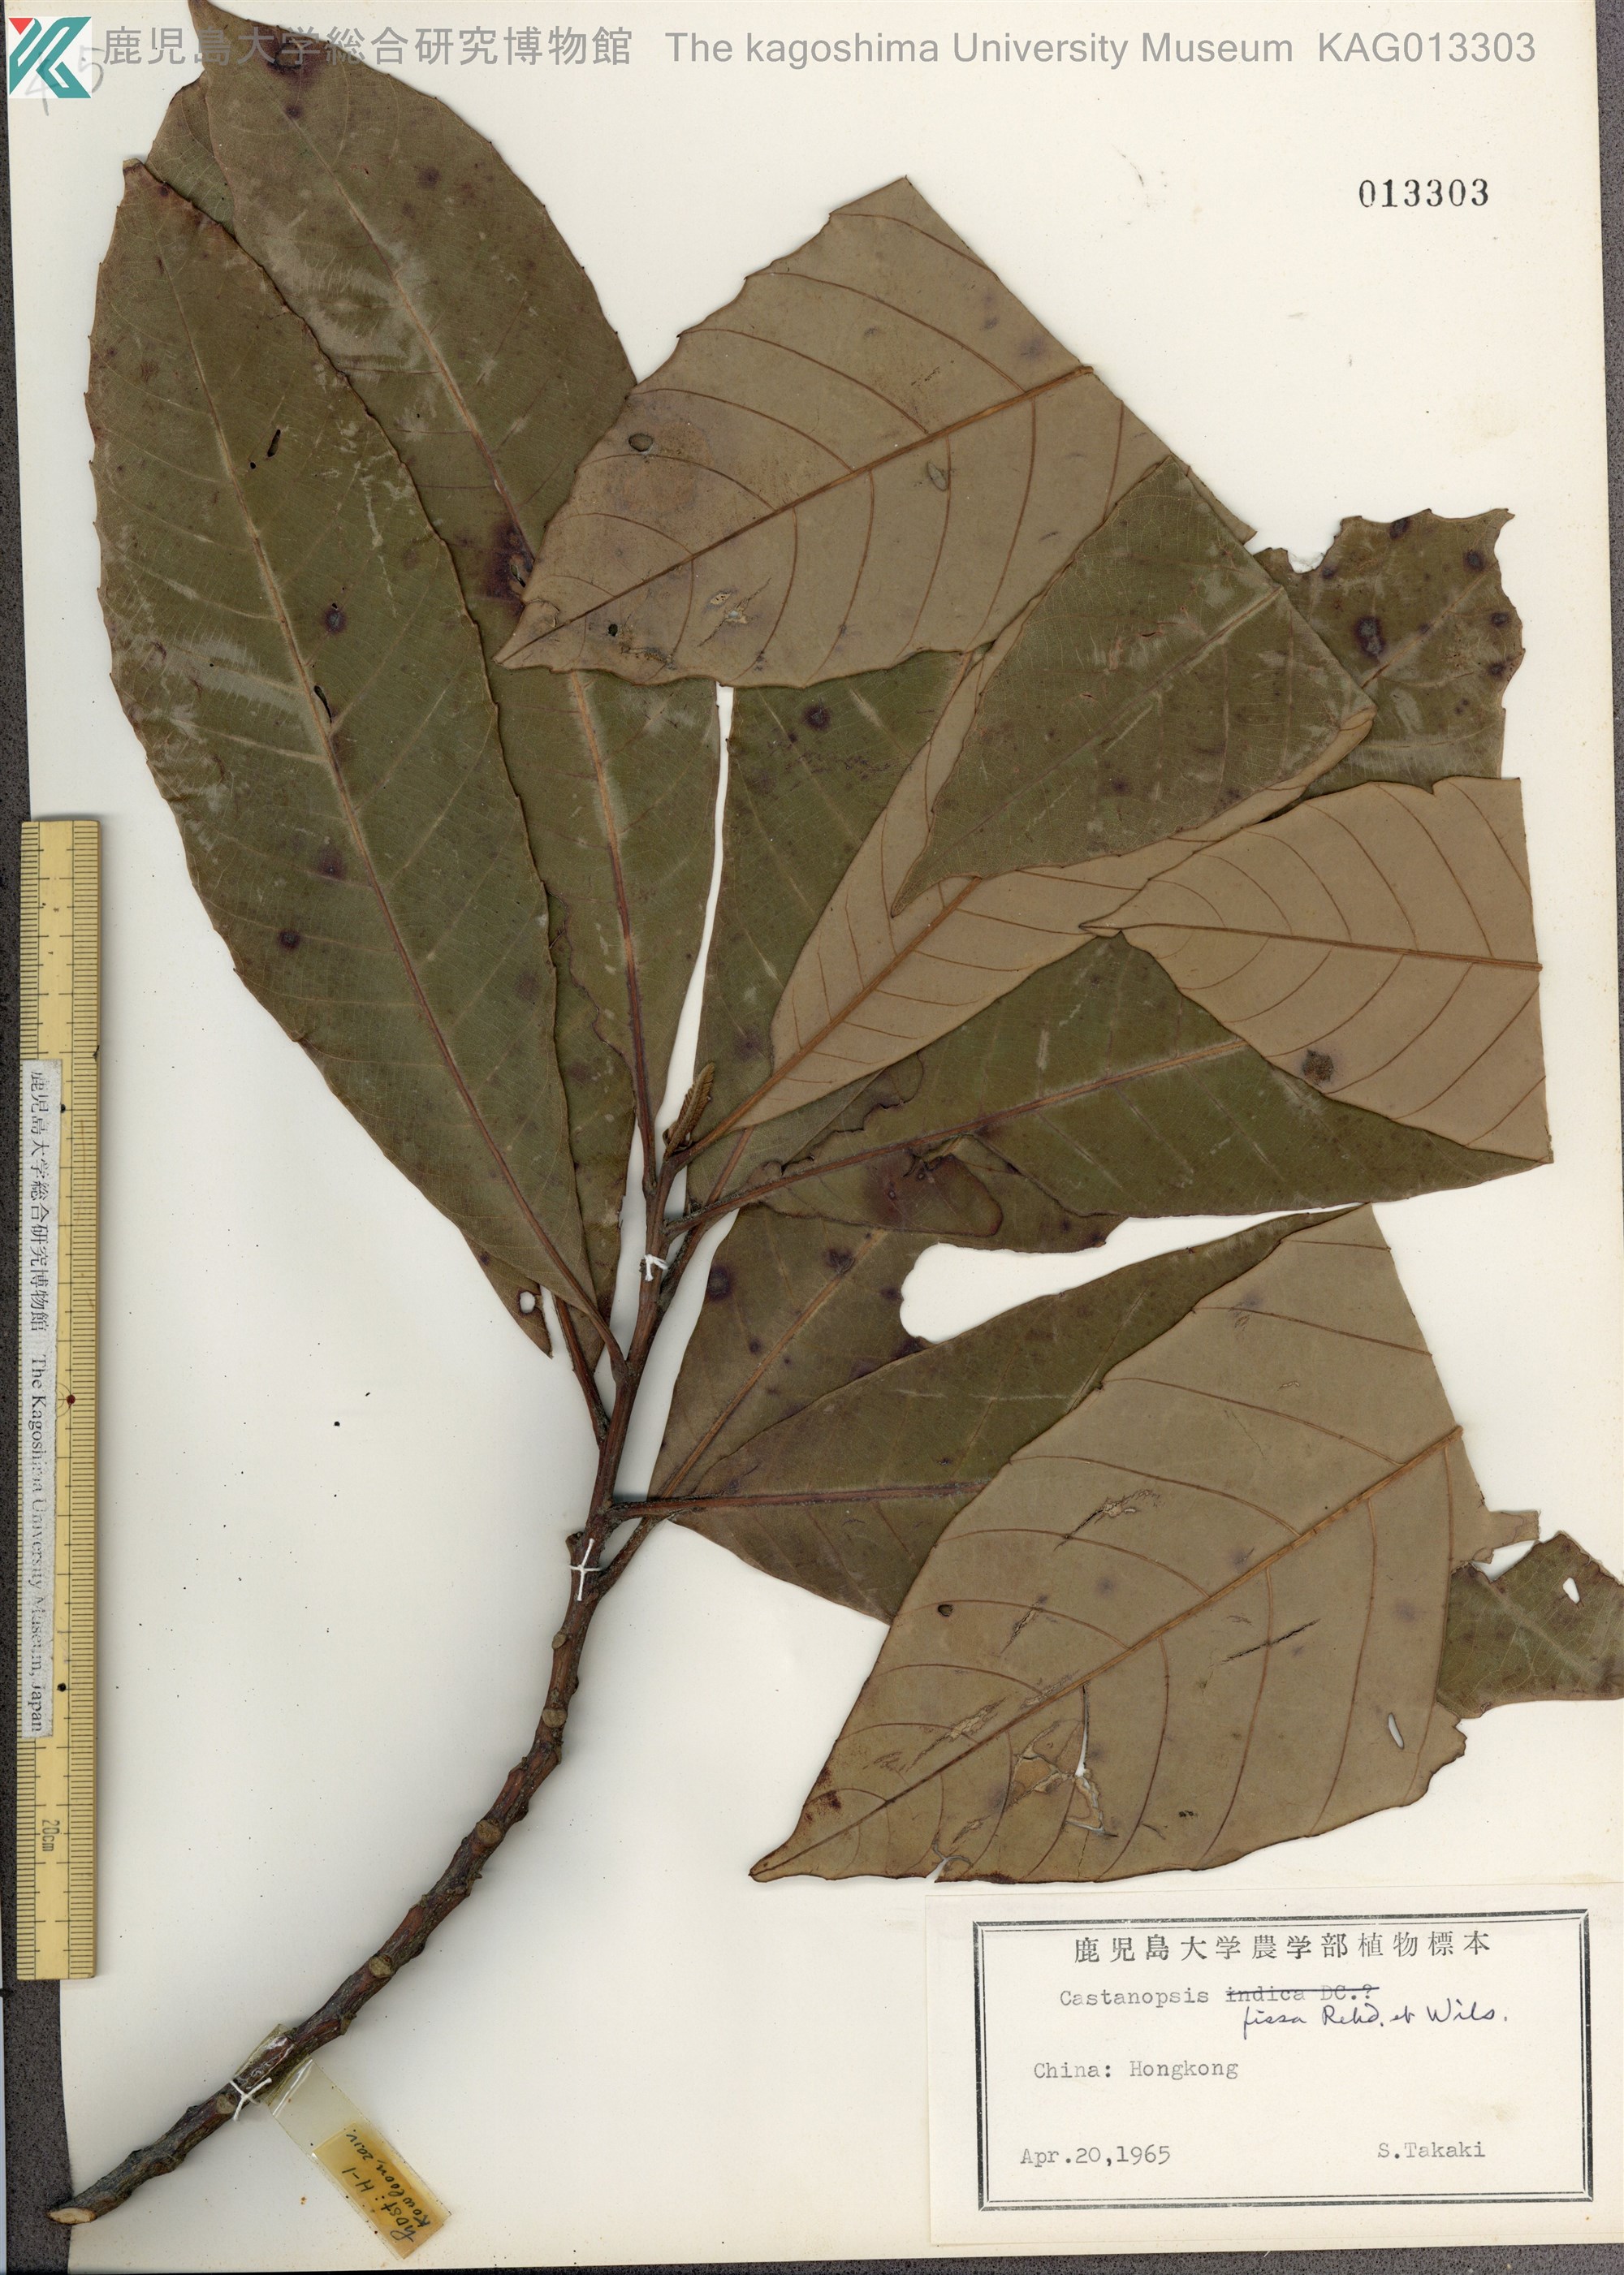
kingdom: Plantae
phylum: Tracheophyta
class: Magnoliopsida
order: Fagales
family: Fagaceae
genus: Castanopsis
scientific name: Castanopsis fissa
